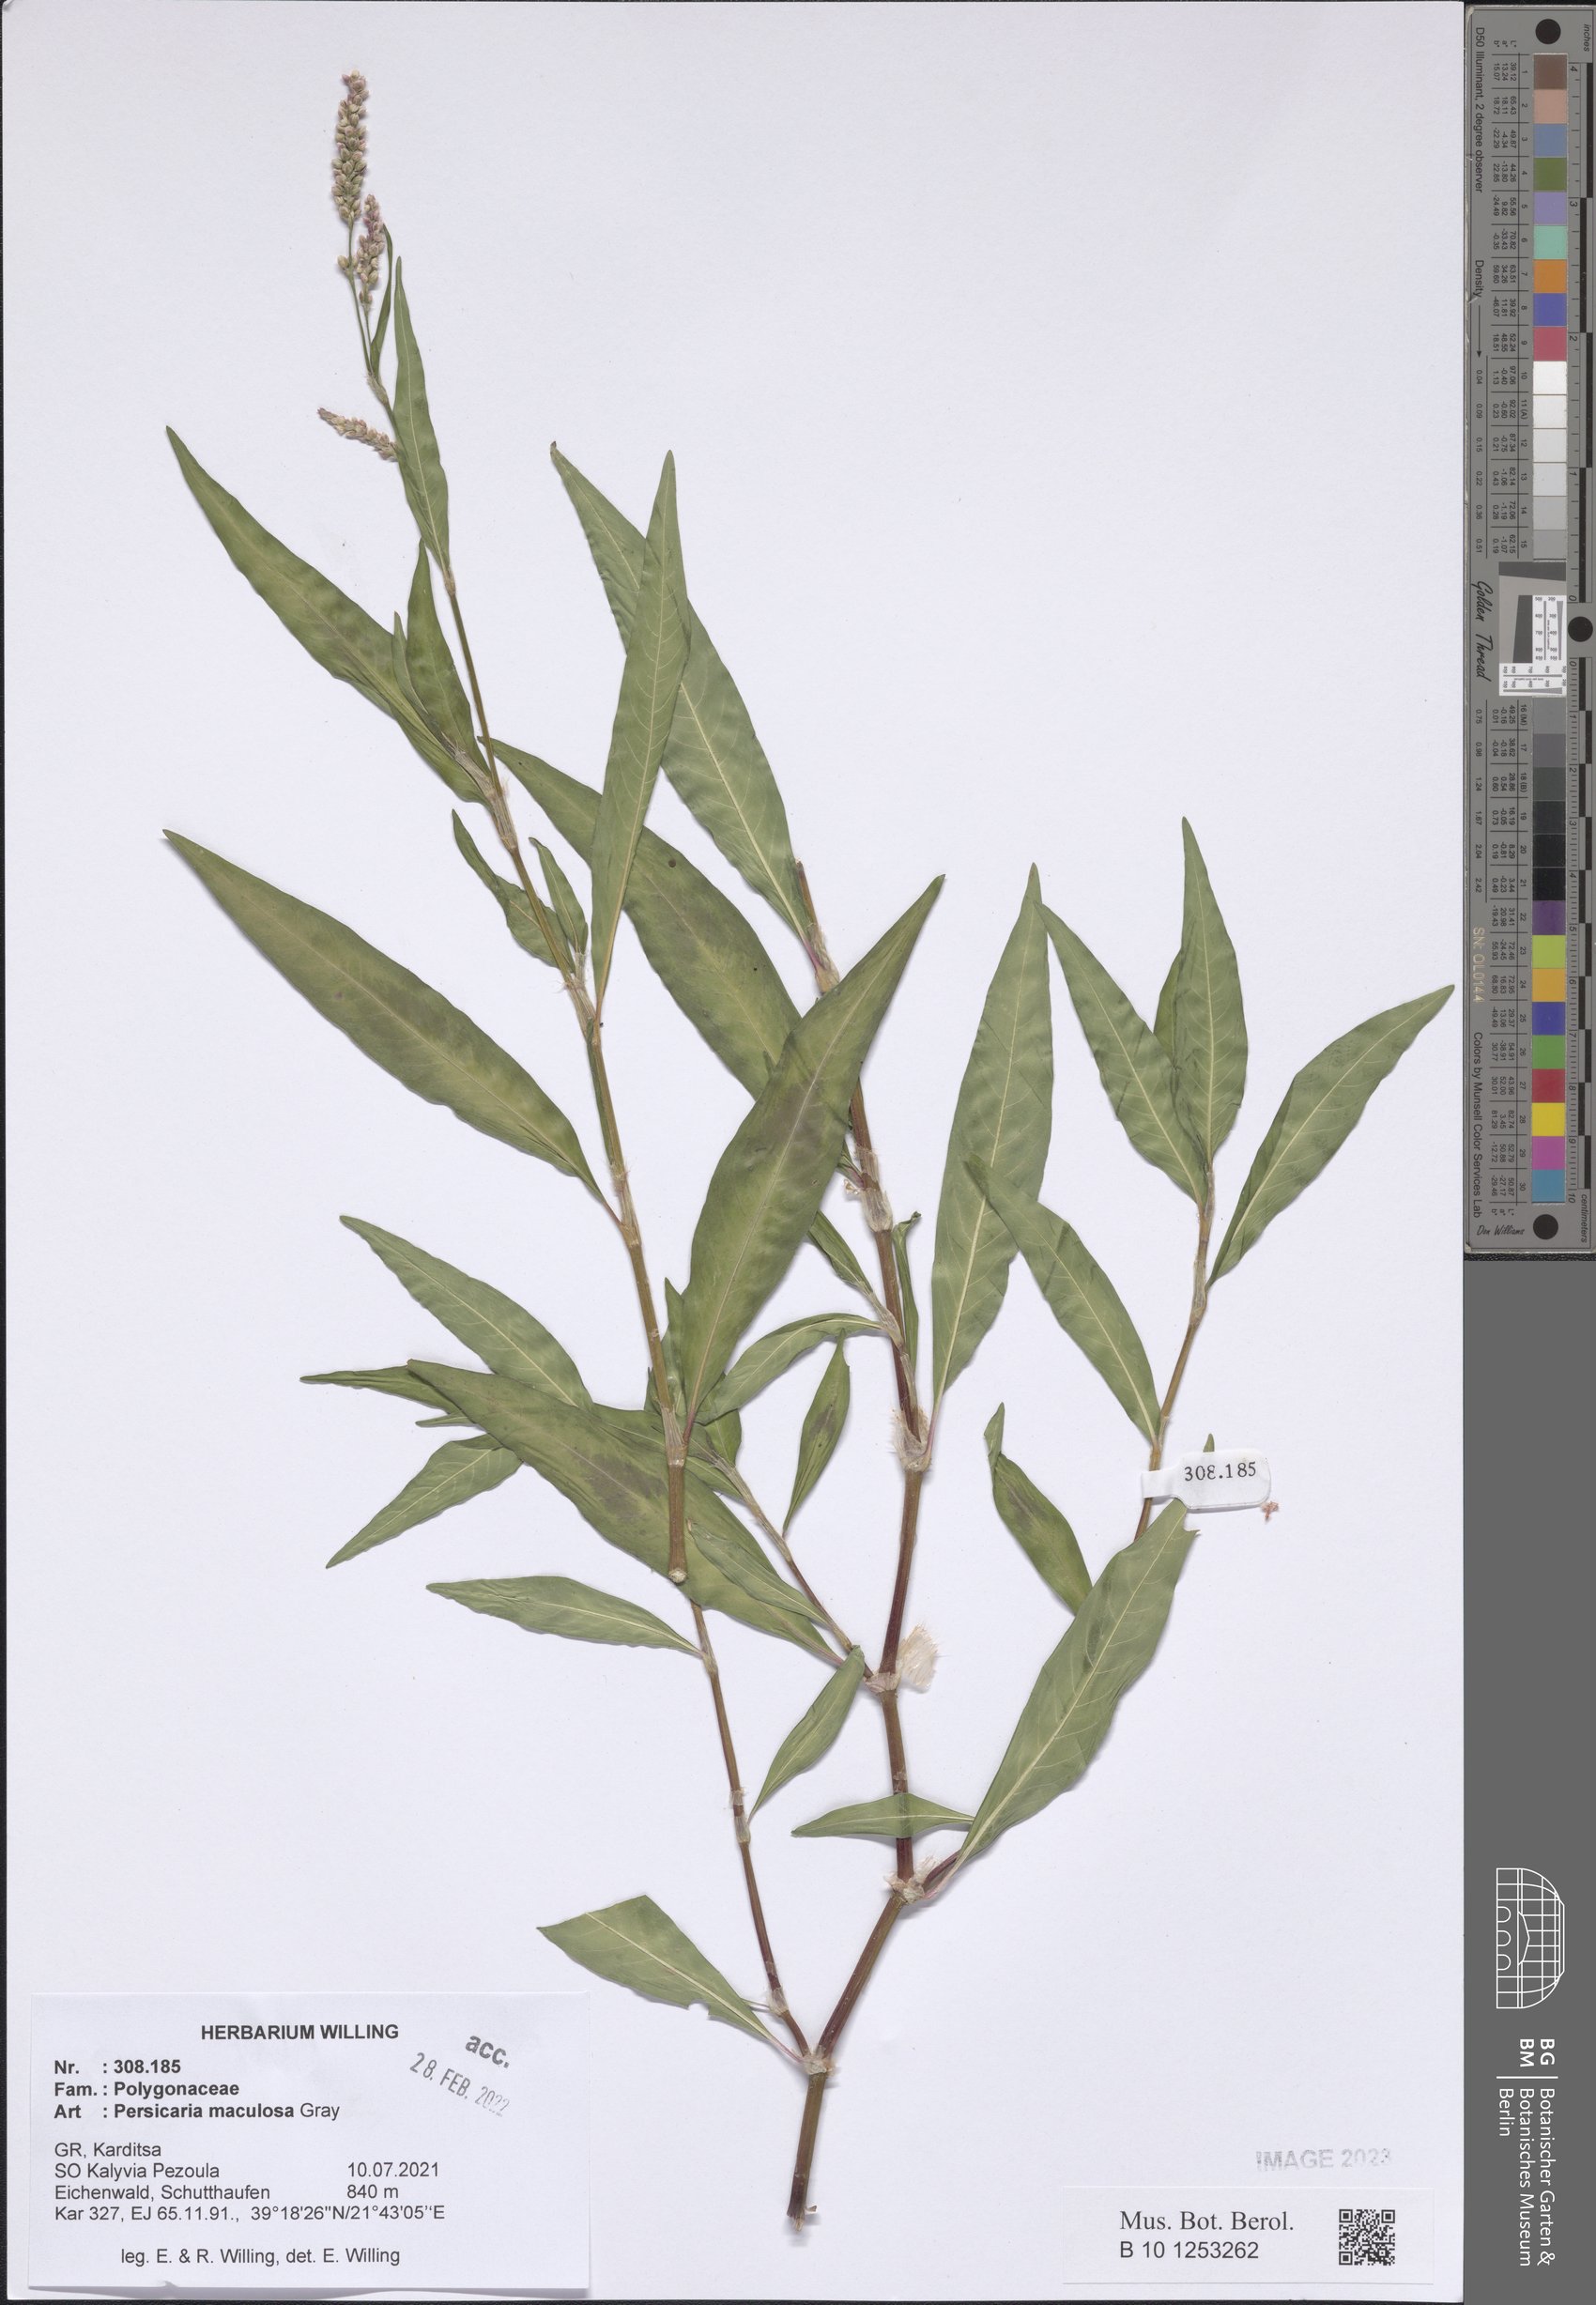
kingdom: Plantae
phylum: Tracheophyta
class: Magnoliopsida
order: Caryophyllales
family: Polygonaceae
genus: Persicaria
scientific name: Persicaria maculosa
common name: Redshank
